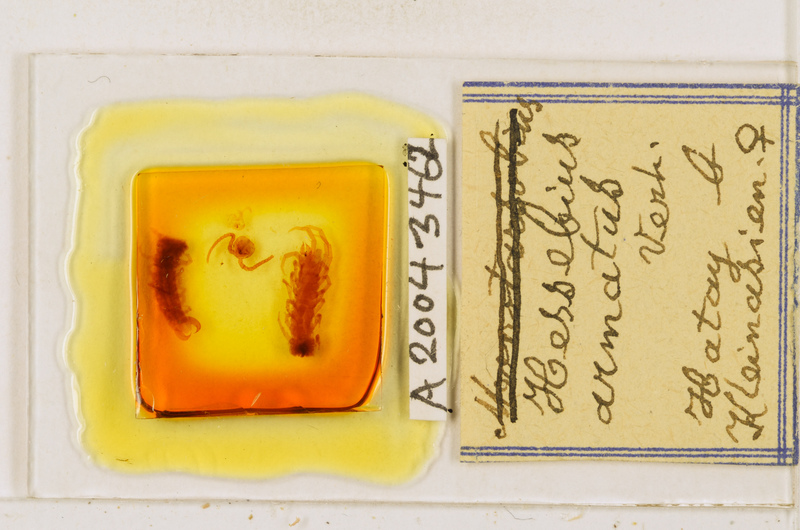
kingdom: Animalia
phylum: Arthropoda
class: Chilopoda
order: Lithobiomorpha
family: Lithobiidae
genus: Hessebius
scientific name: Hessebius armatus
